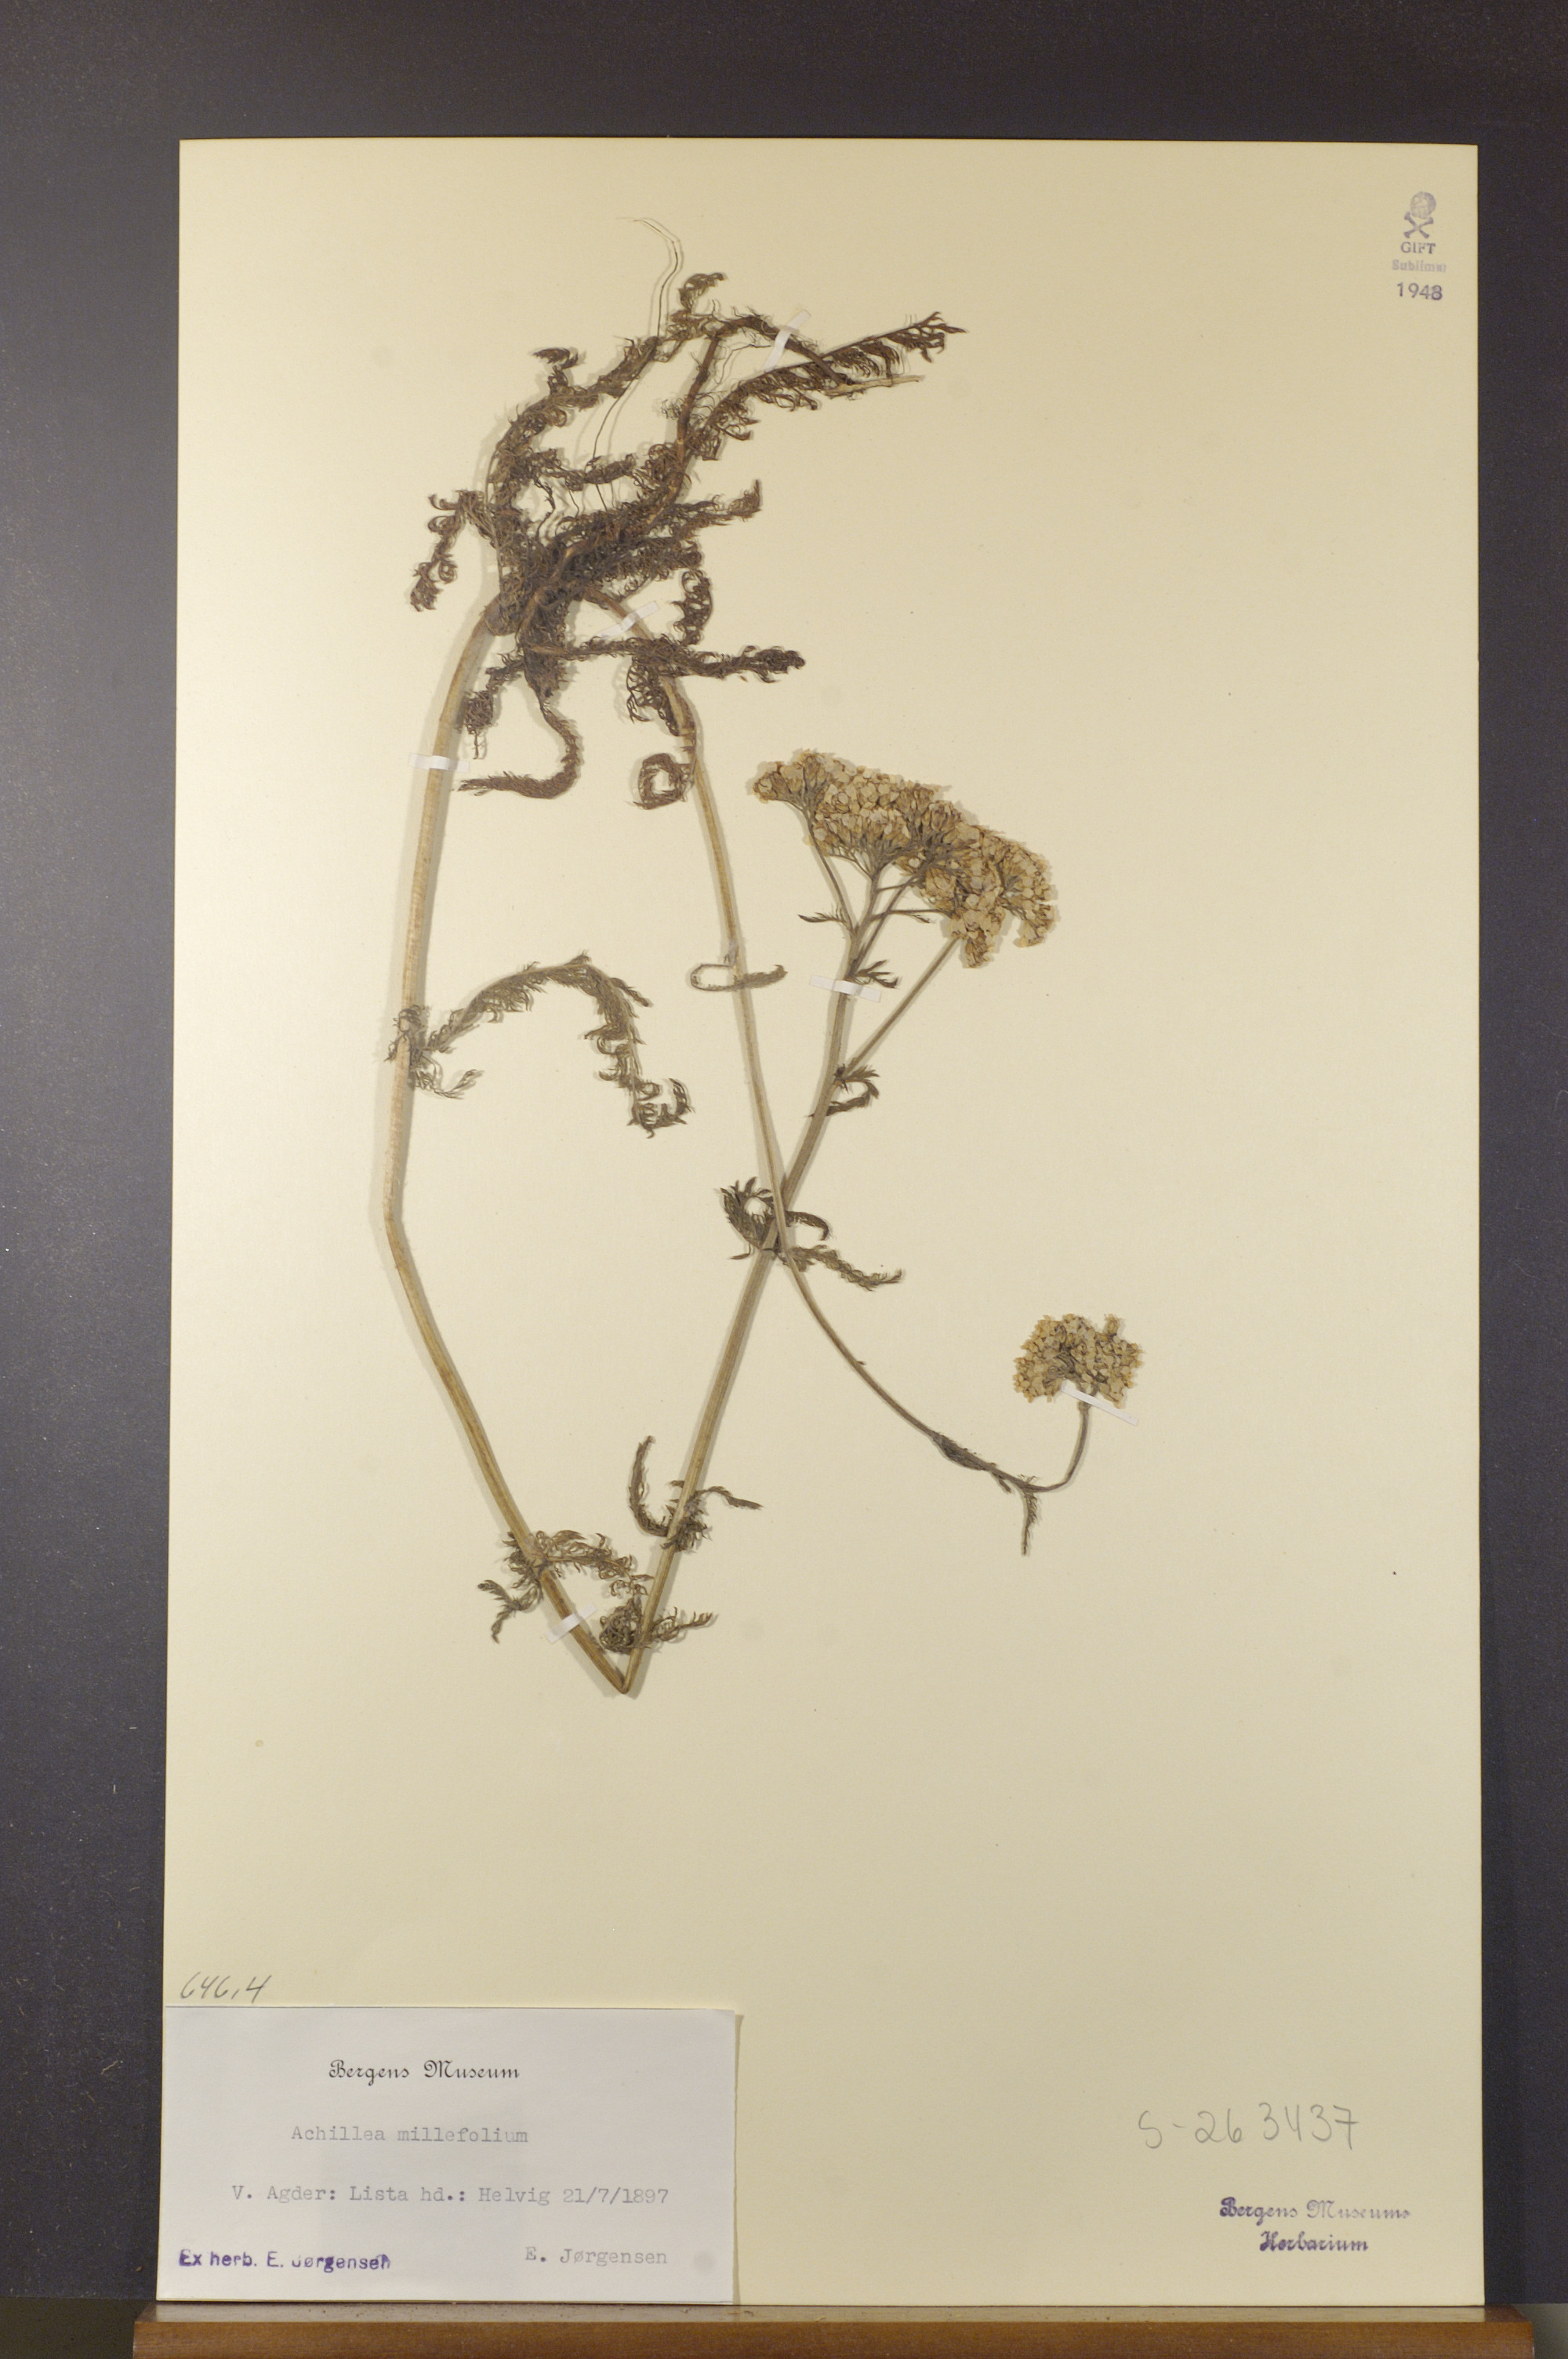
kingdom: Plantae
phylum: Tracheophyta
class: Magnoliopsida
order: Asterales
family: Asteraceae
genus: Achillea
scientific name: Achillea millefolium
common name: Yarrow
